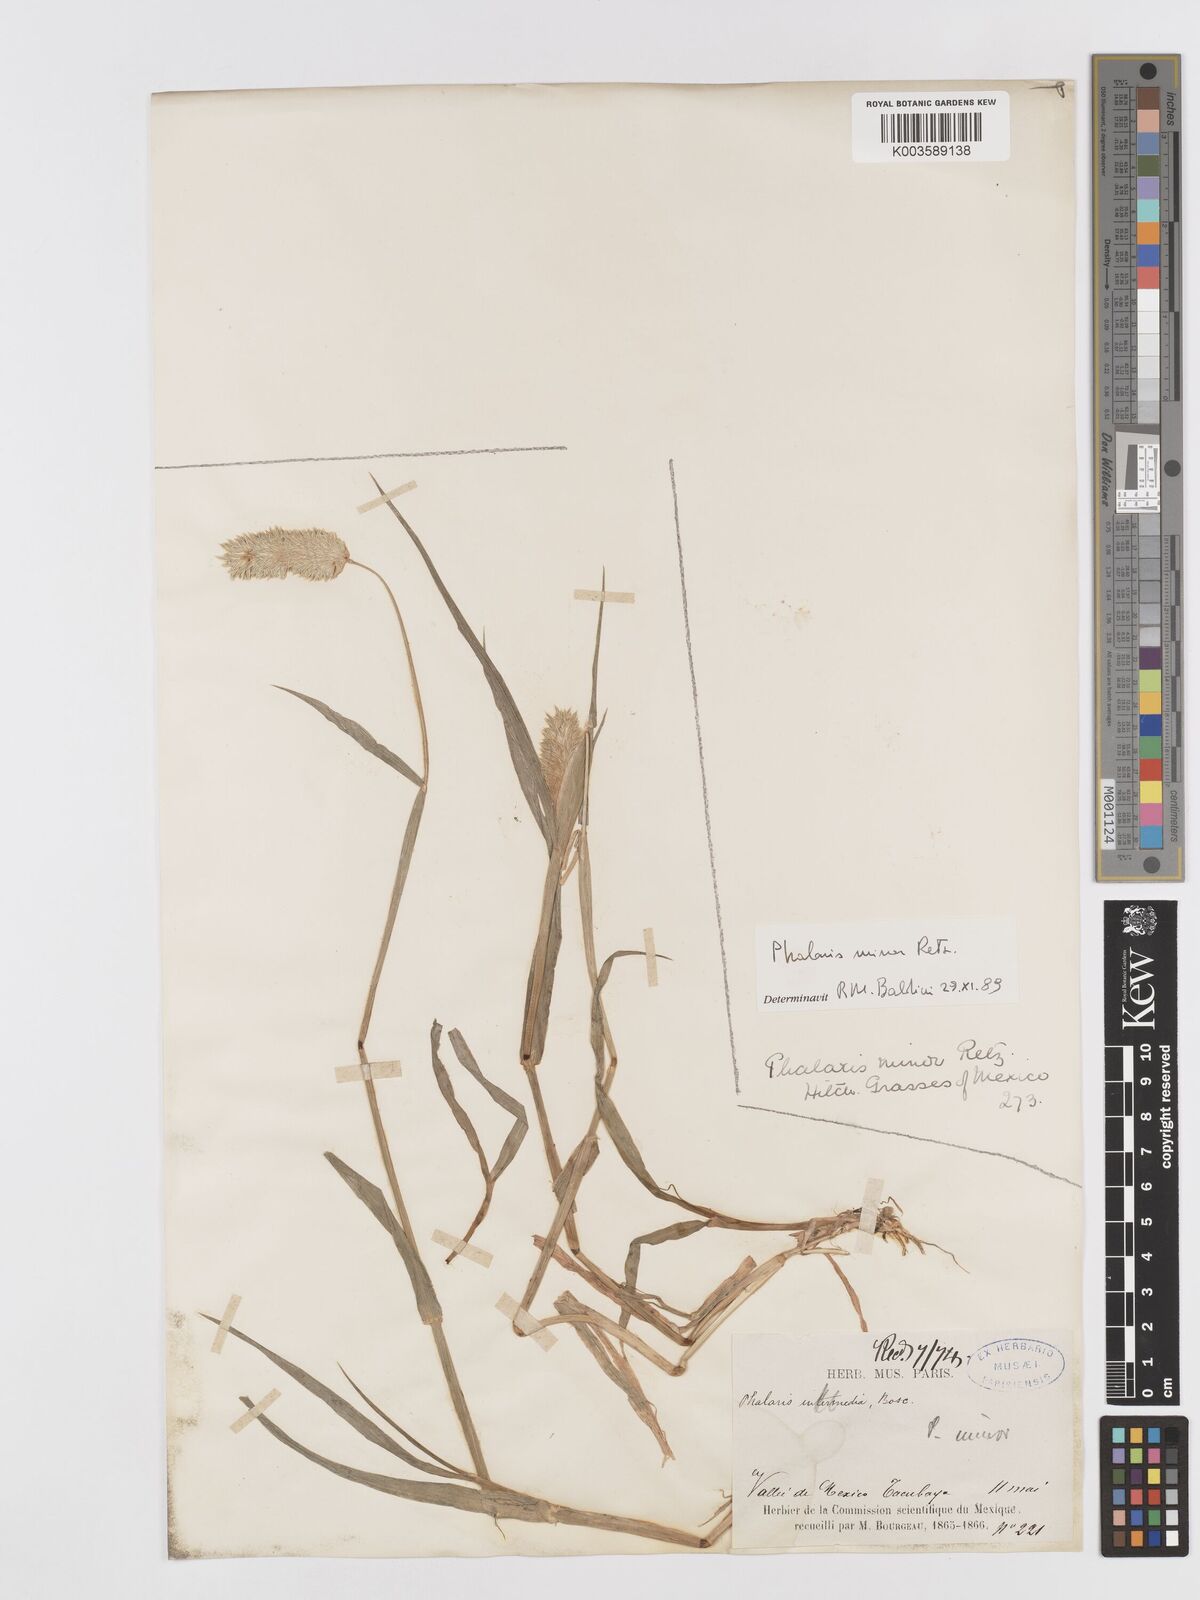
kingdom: Plantae
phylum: Tracheophyta
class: Liliopsida
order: Poales
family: Poaceae
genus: Phalaris
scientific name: Phalaris minor
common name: Littleseed canarygrass
